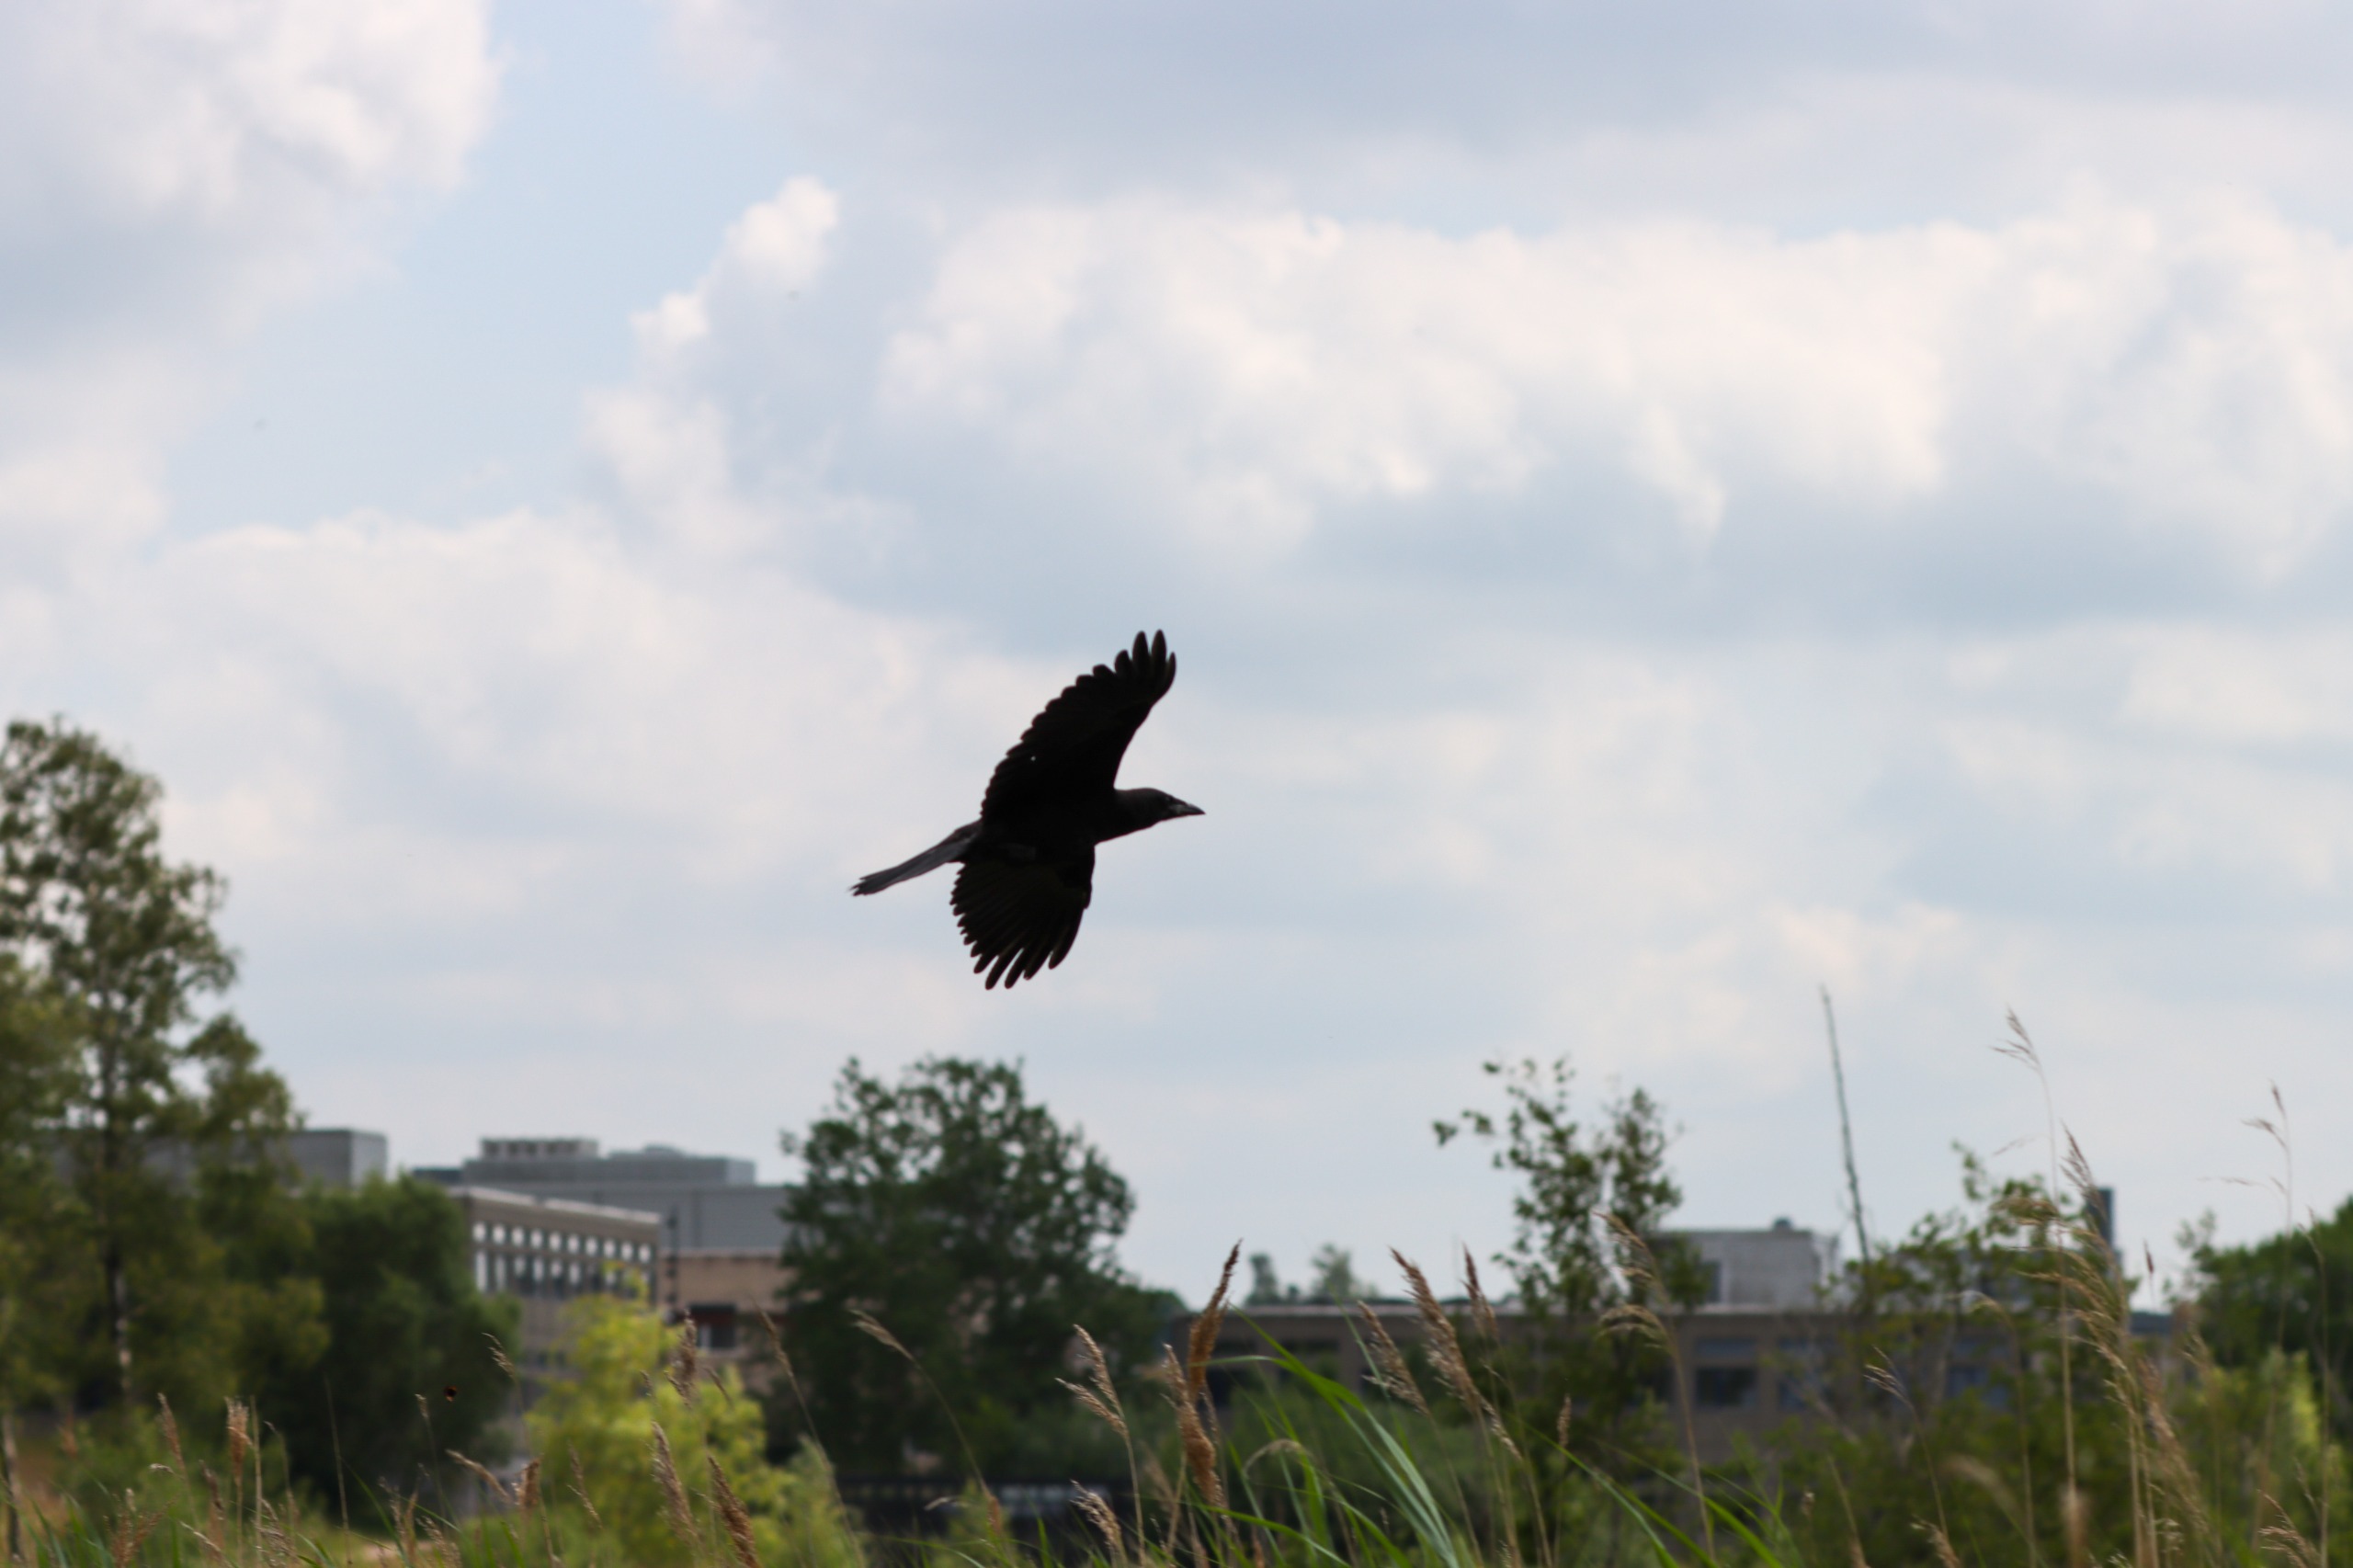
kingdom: Animalia
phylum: Chordata
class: Aves
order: Passeriformes
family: Corvidae
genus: Corvus
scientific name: Corvus frugilegus
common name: Råge
